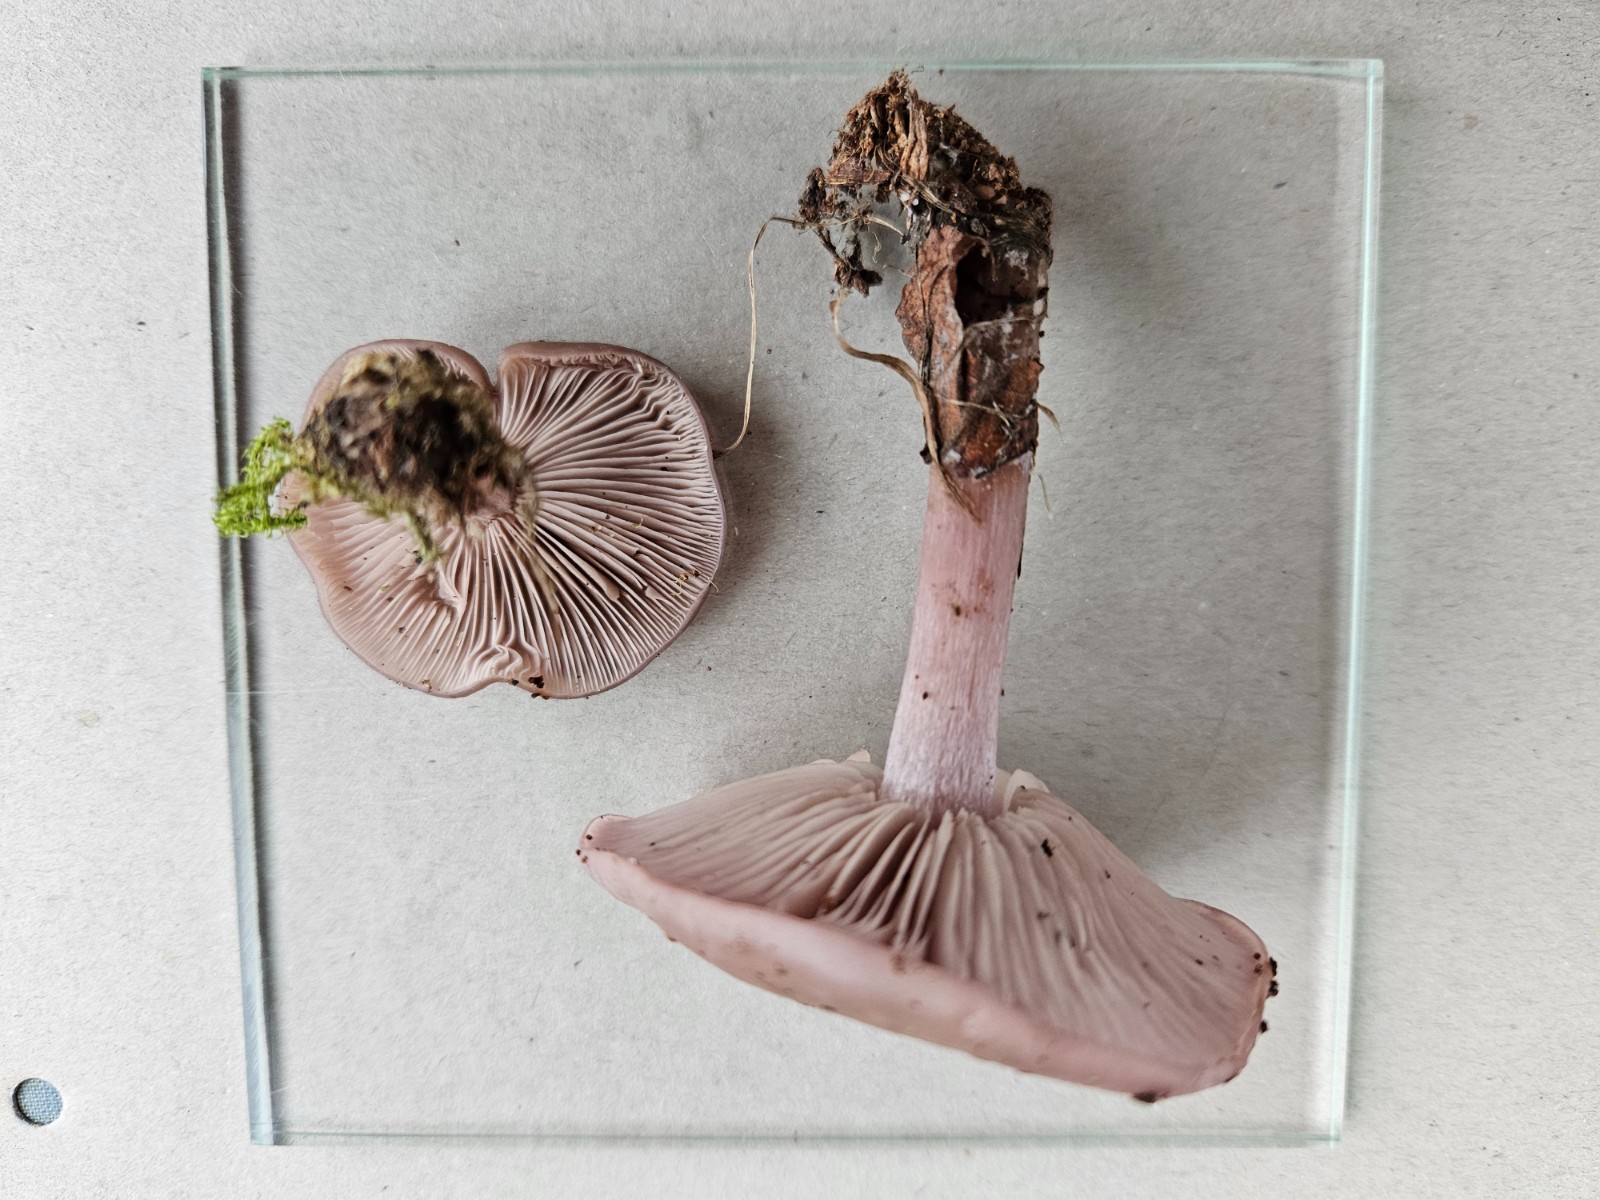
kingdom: Fungi
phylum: Basidiomycota
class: Agaricomycetes
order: Agaricales
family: Tricholomataceae
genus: Lepista
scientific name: Lepista lilacea
